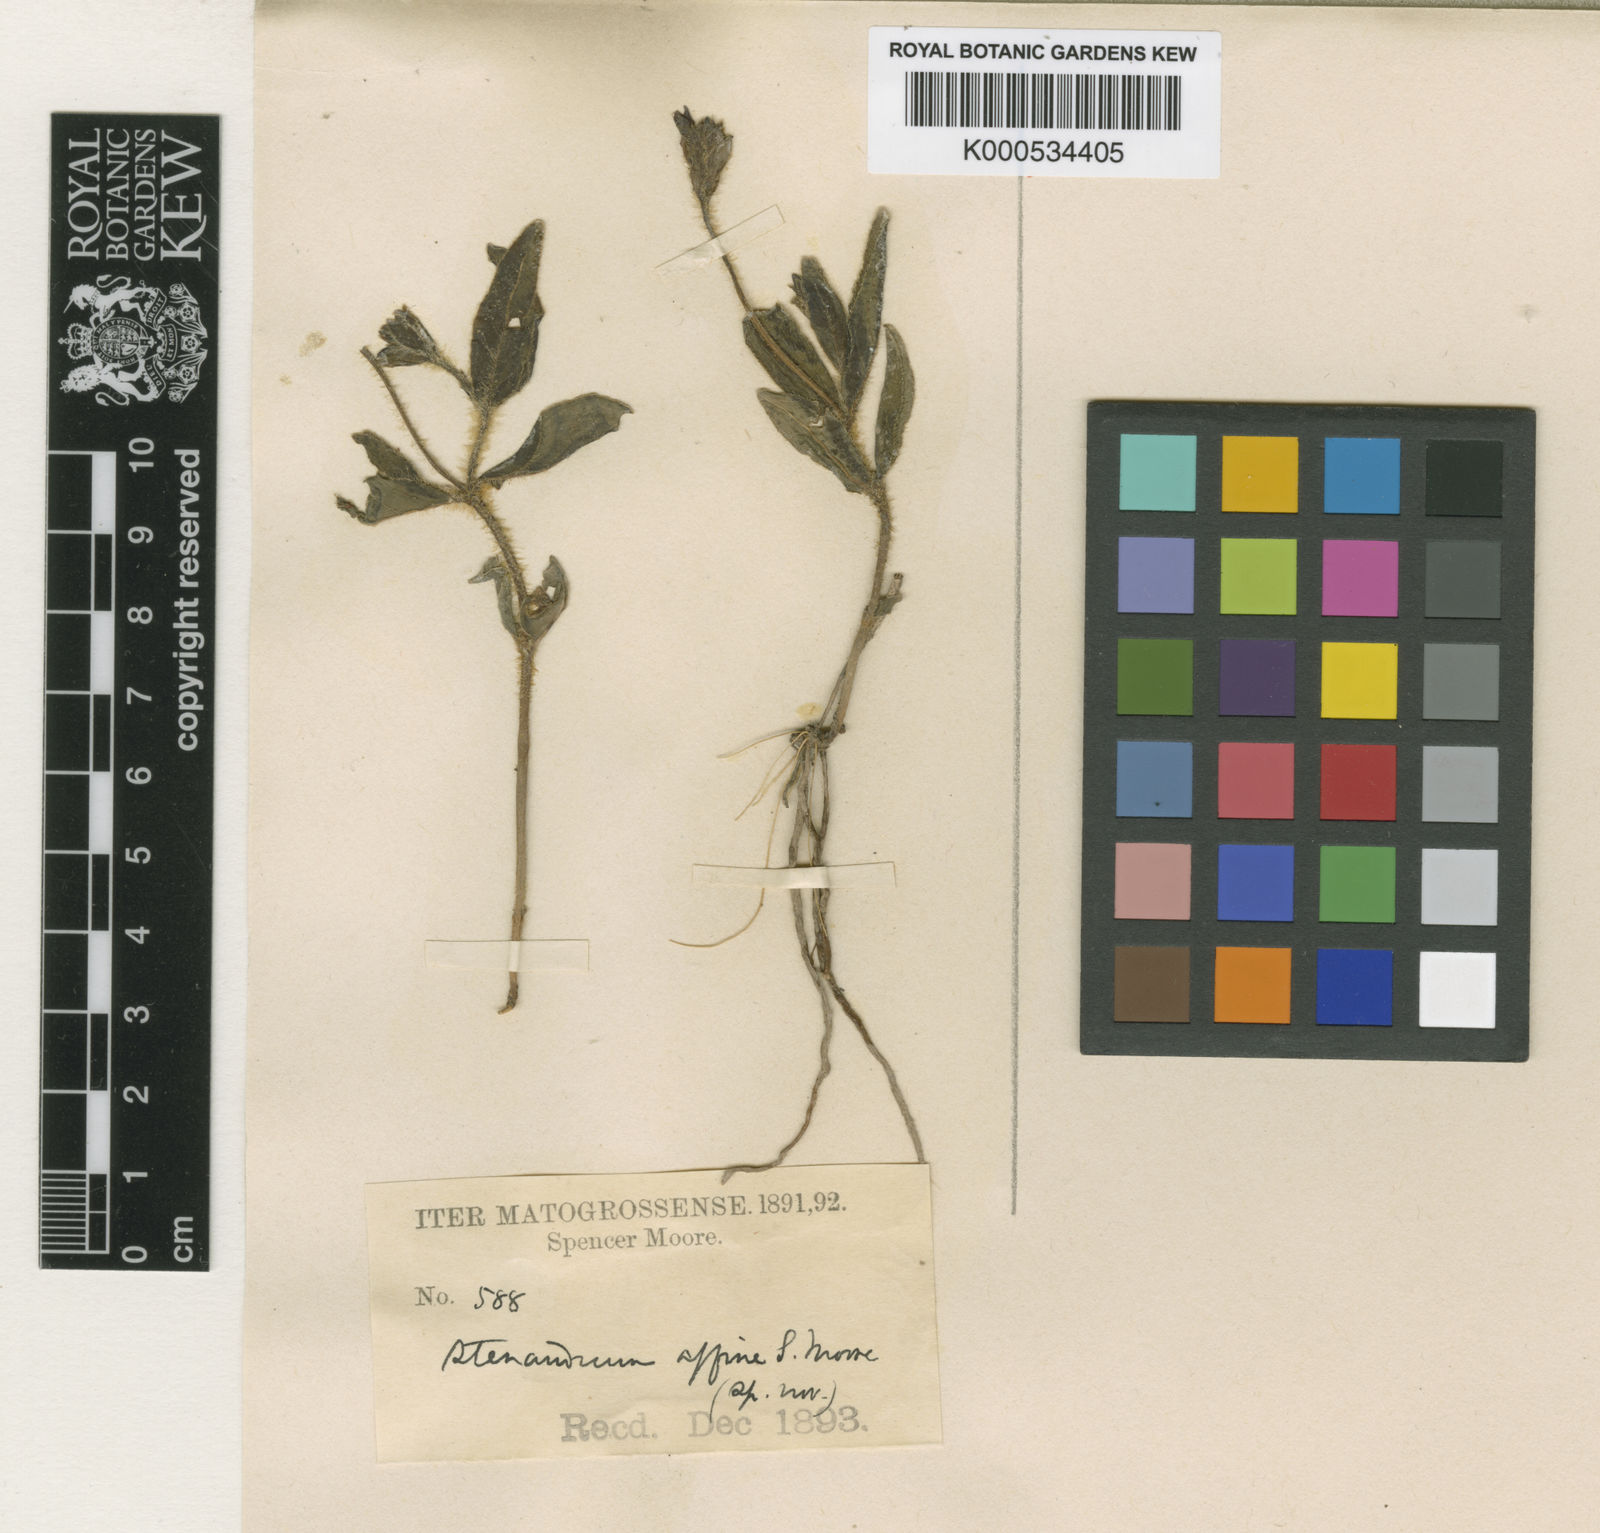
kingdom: Plantae
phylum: Tracheophyta
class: Magnoliopsida
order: Lamiales
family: Acanthaceae
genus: Stenandrium
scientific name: Stenandrium affine
